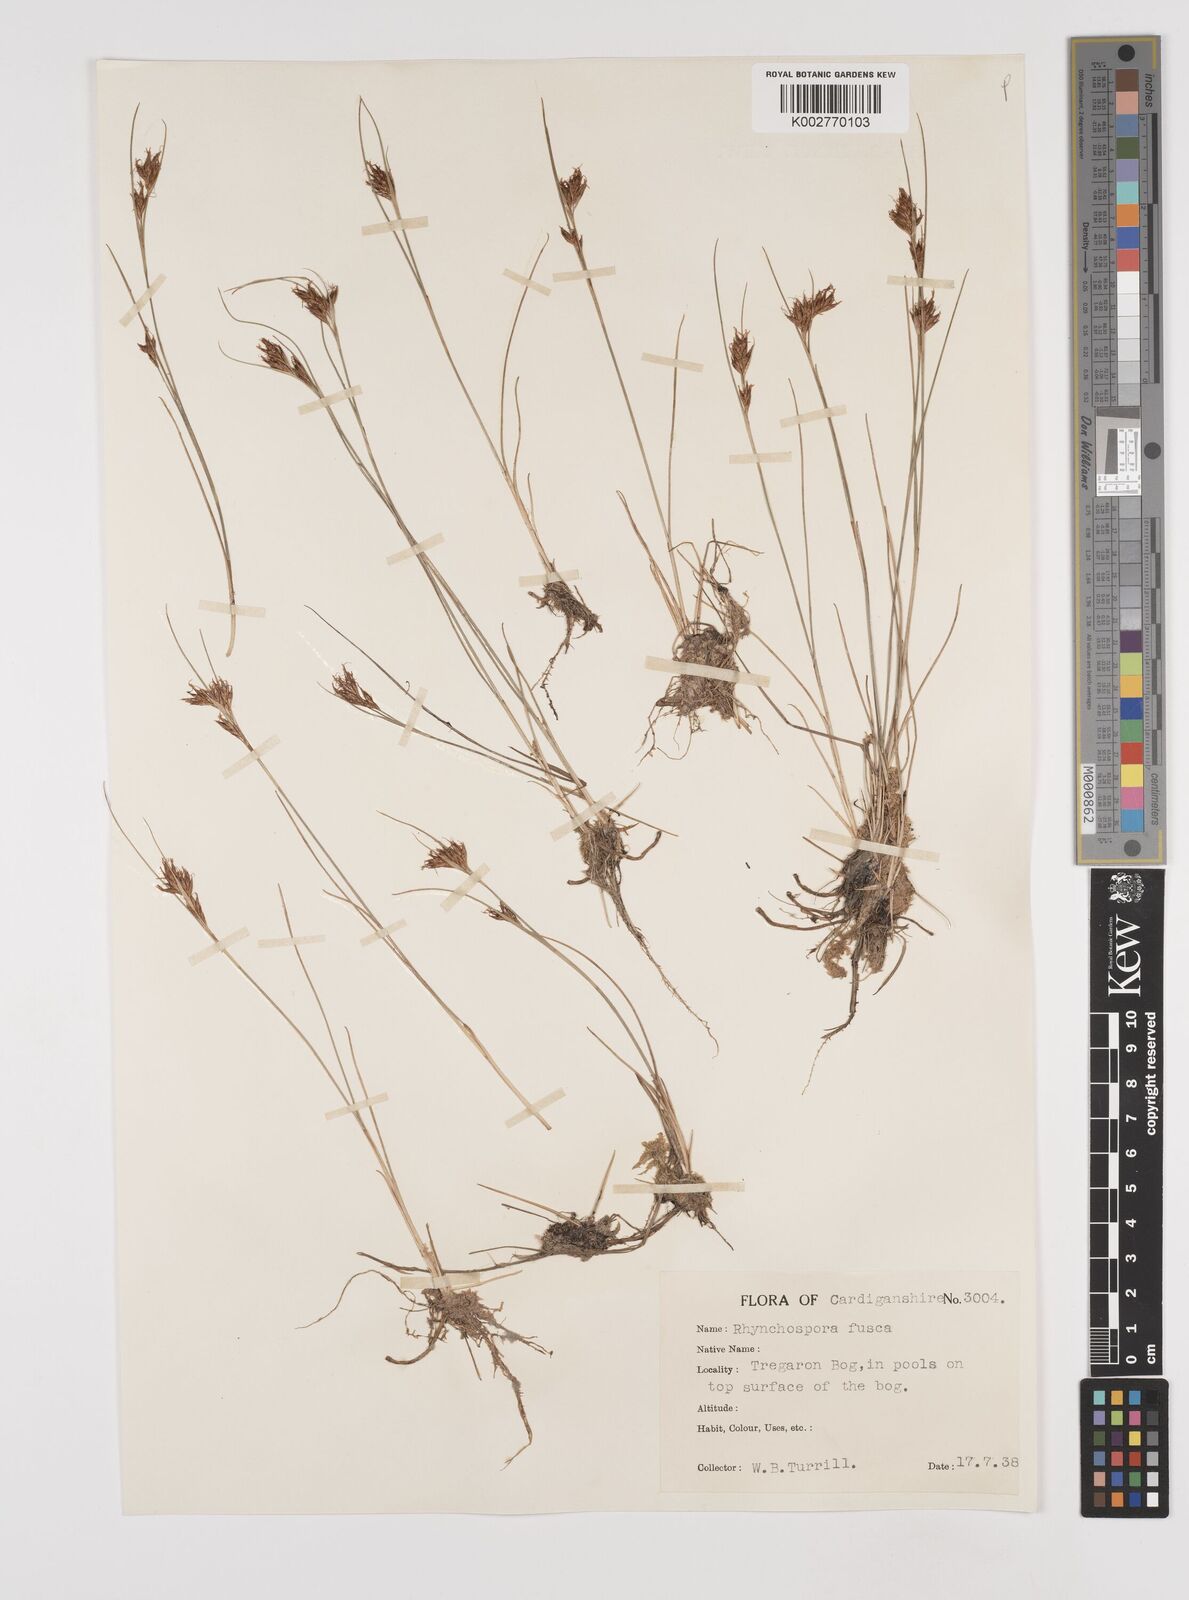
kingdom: Plantae
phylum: Tracheophyta
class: Liliopsida
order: Poales
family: Cyperaceae
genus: Rhynchospora
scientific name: Rhynchospora alba
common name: White beak-sedge
